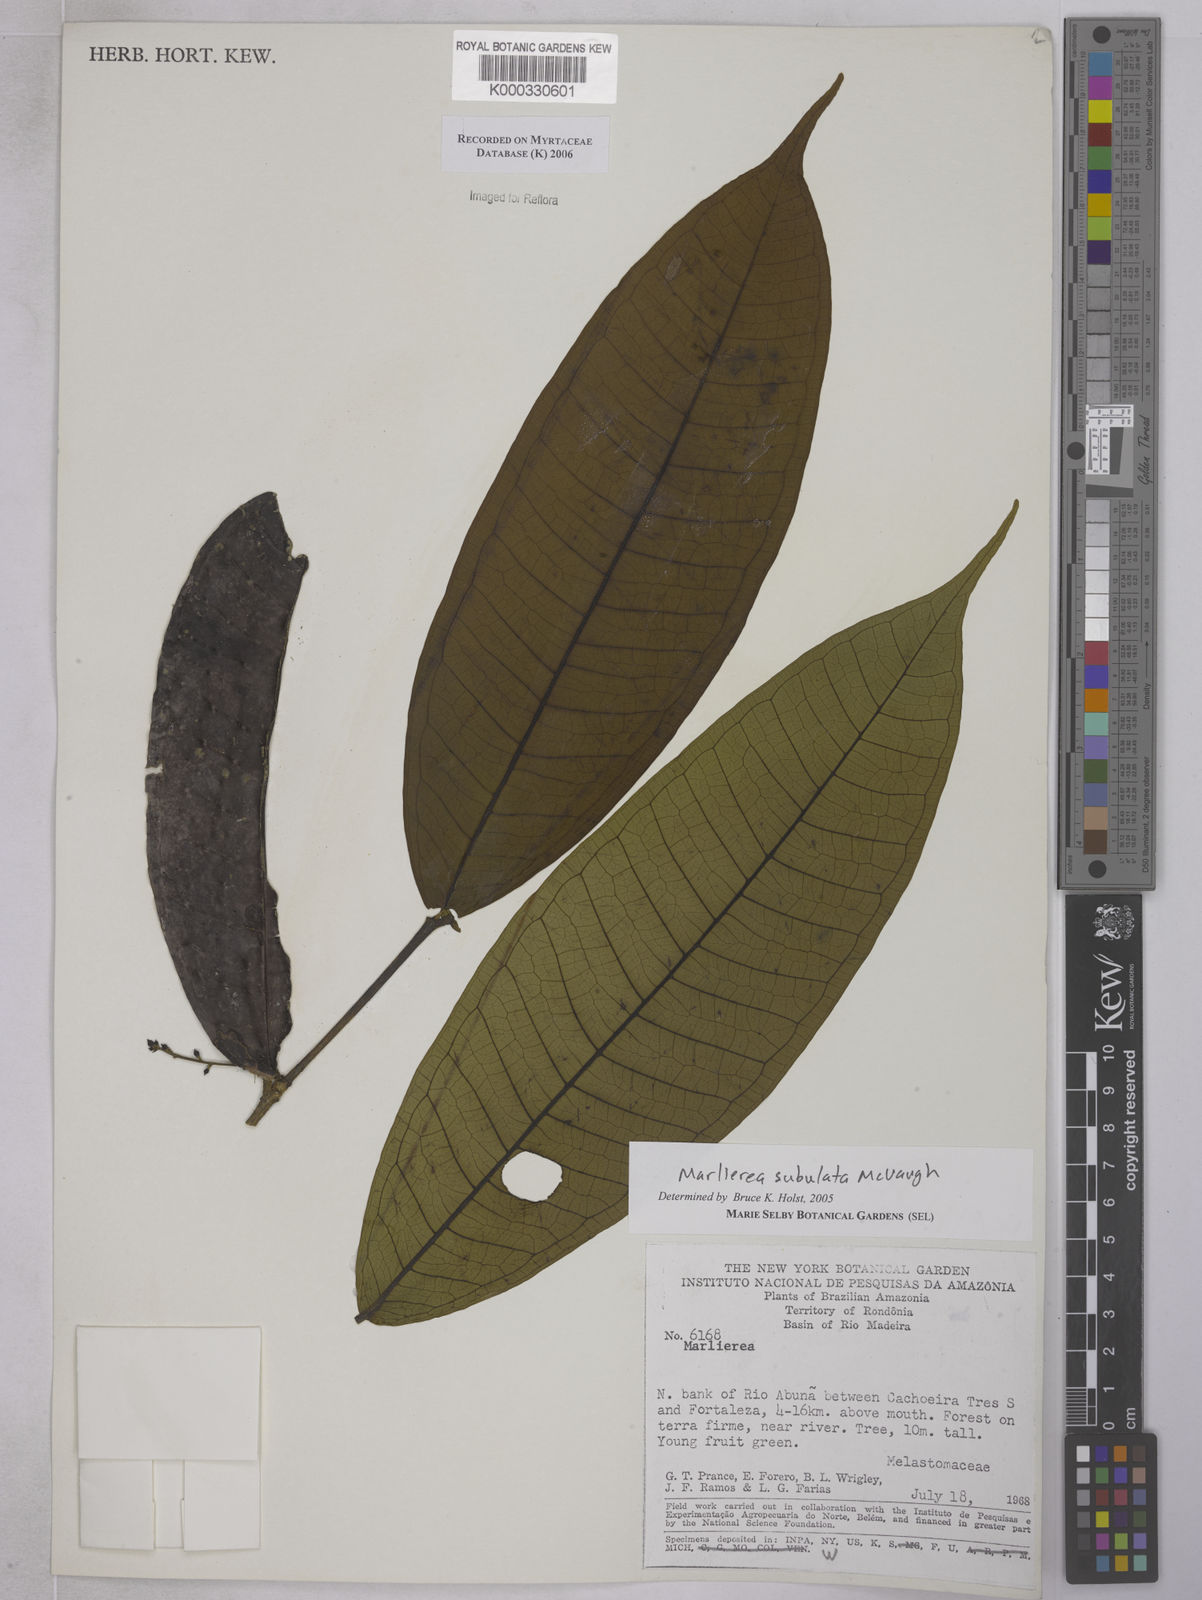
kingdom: Plantae
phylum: Tracheophyta
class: Magnoliopsida
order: Myrtales
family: Myrtaceae
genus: Myrcia
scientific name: Myrcia subulata
